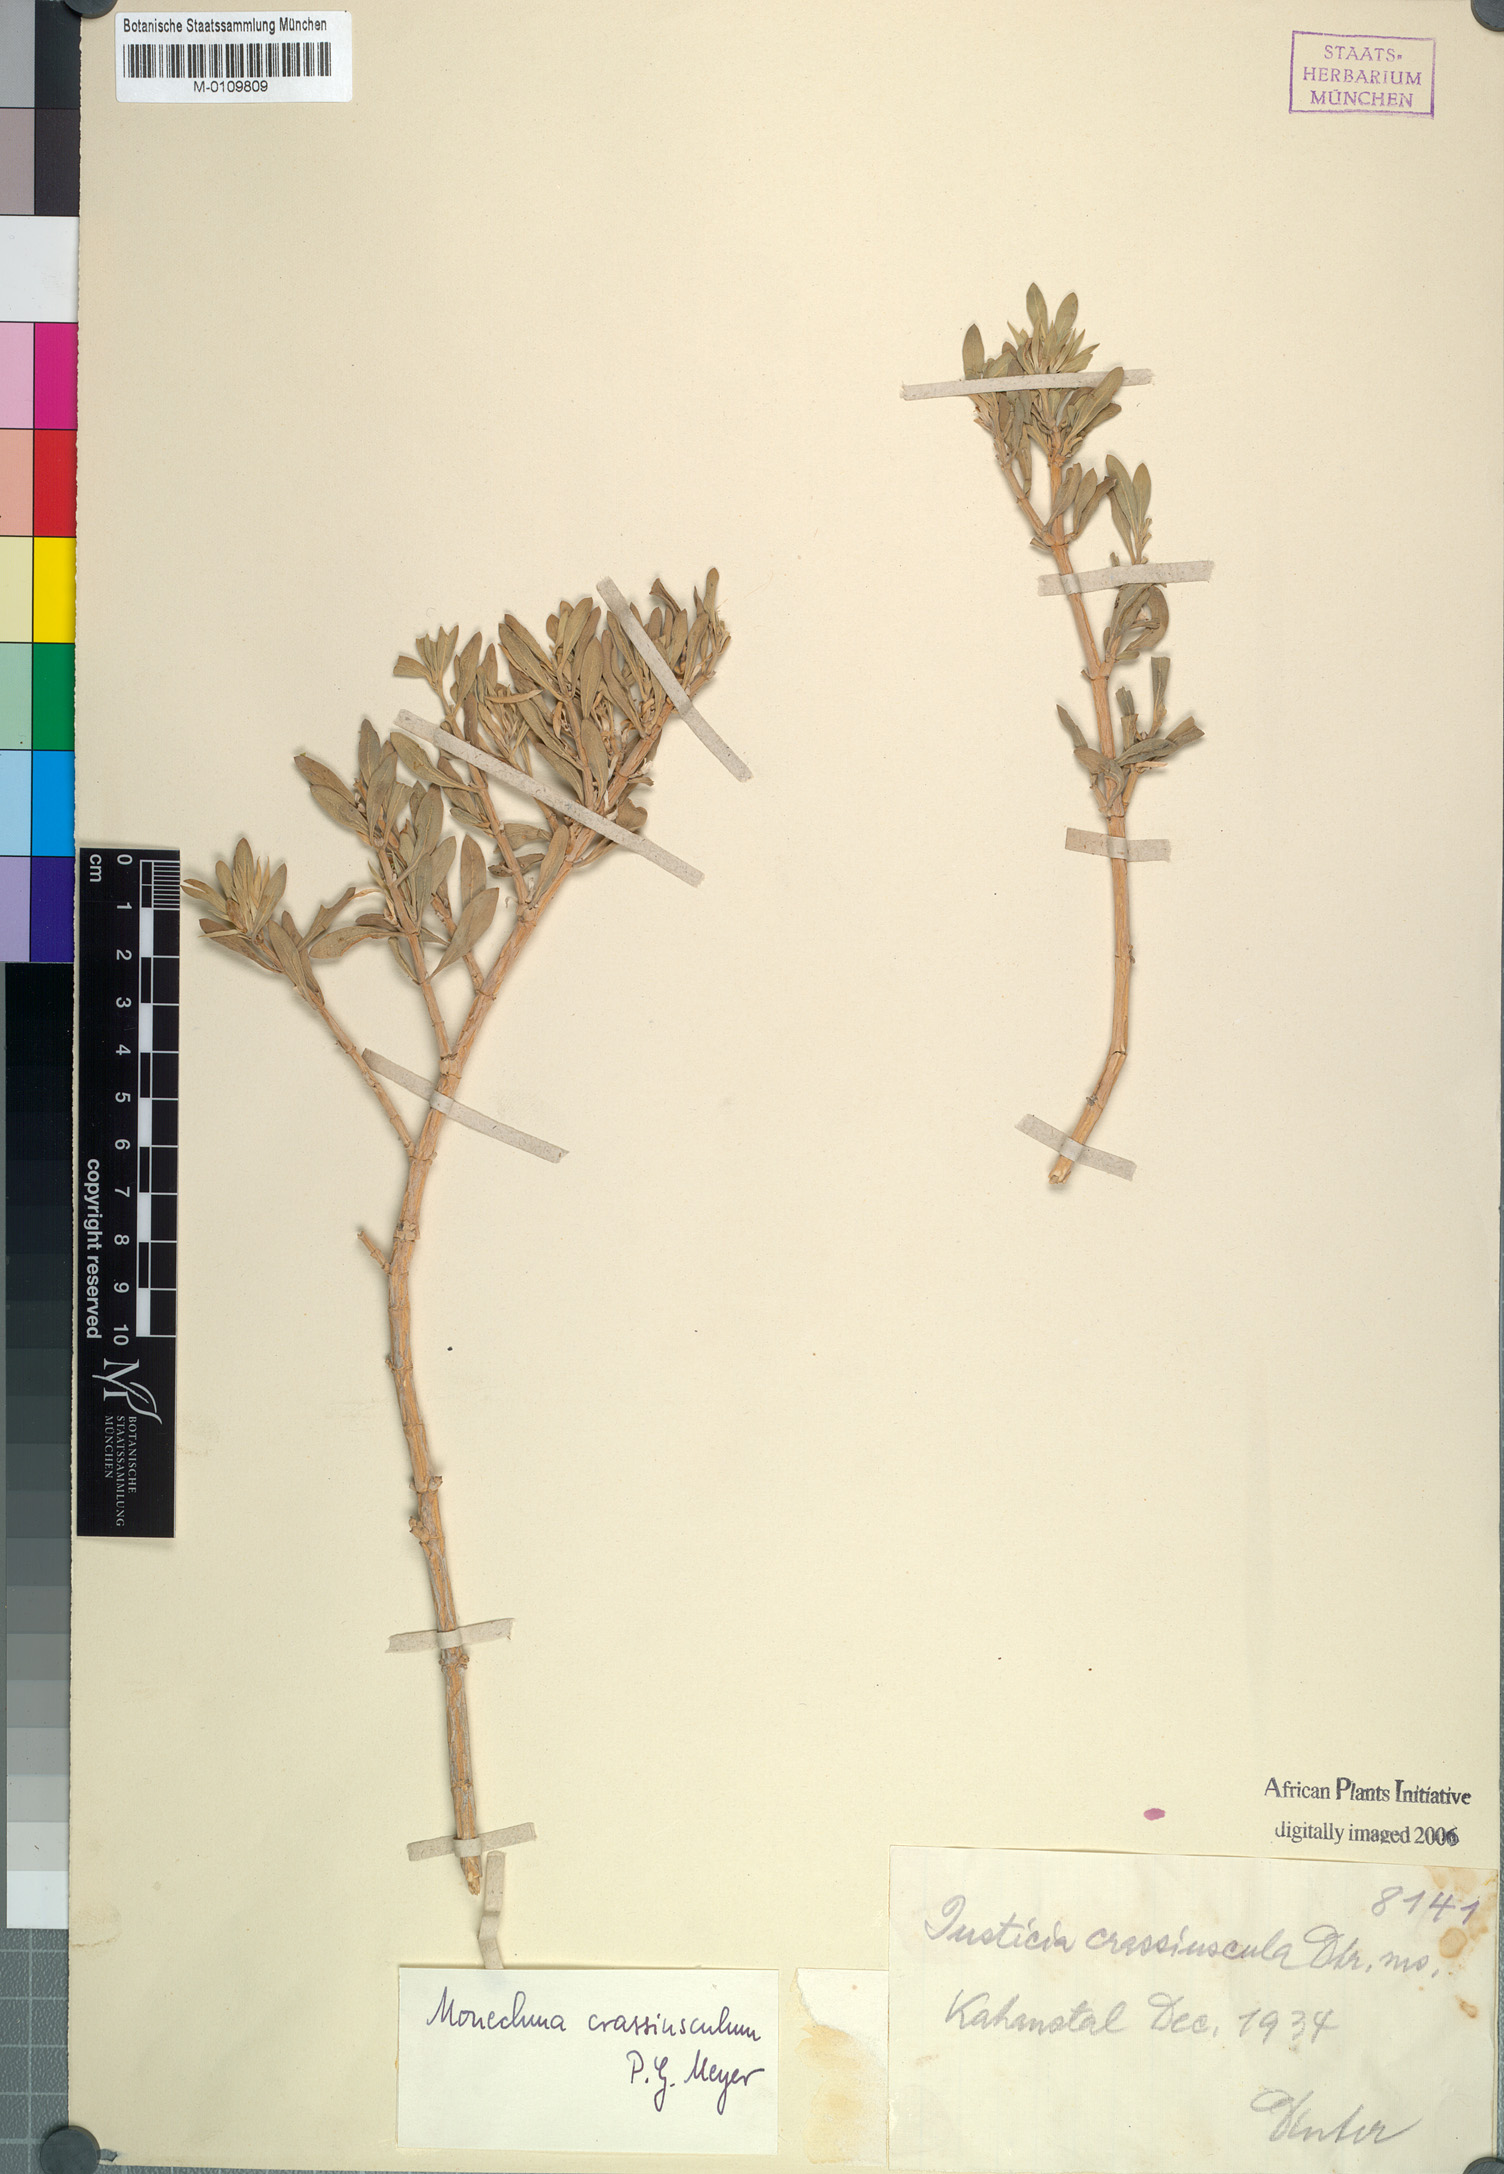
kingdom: Plantae
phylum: Tracheophyta
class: Magnoliopsida
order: Lamiales
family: Acanthaceae
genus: Monechma
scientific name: Monechma crassiusculum
